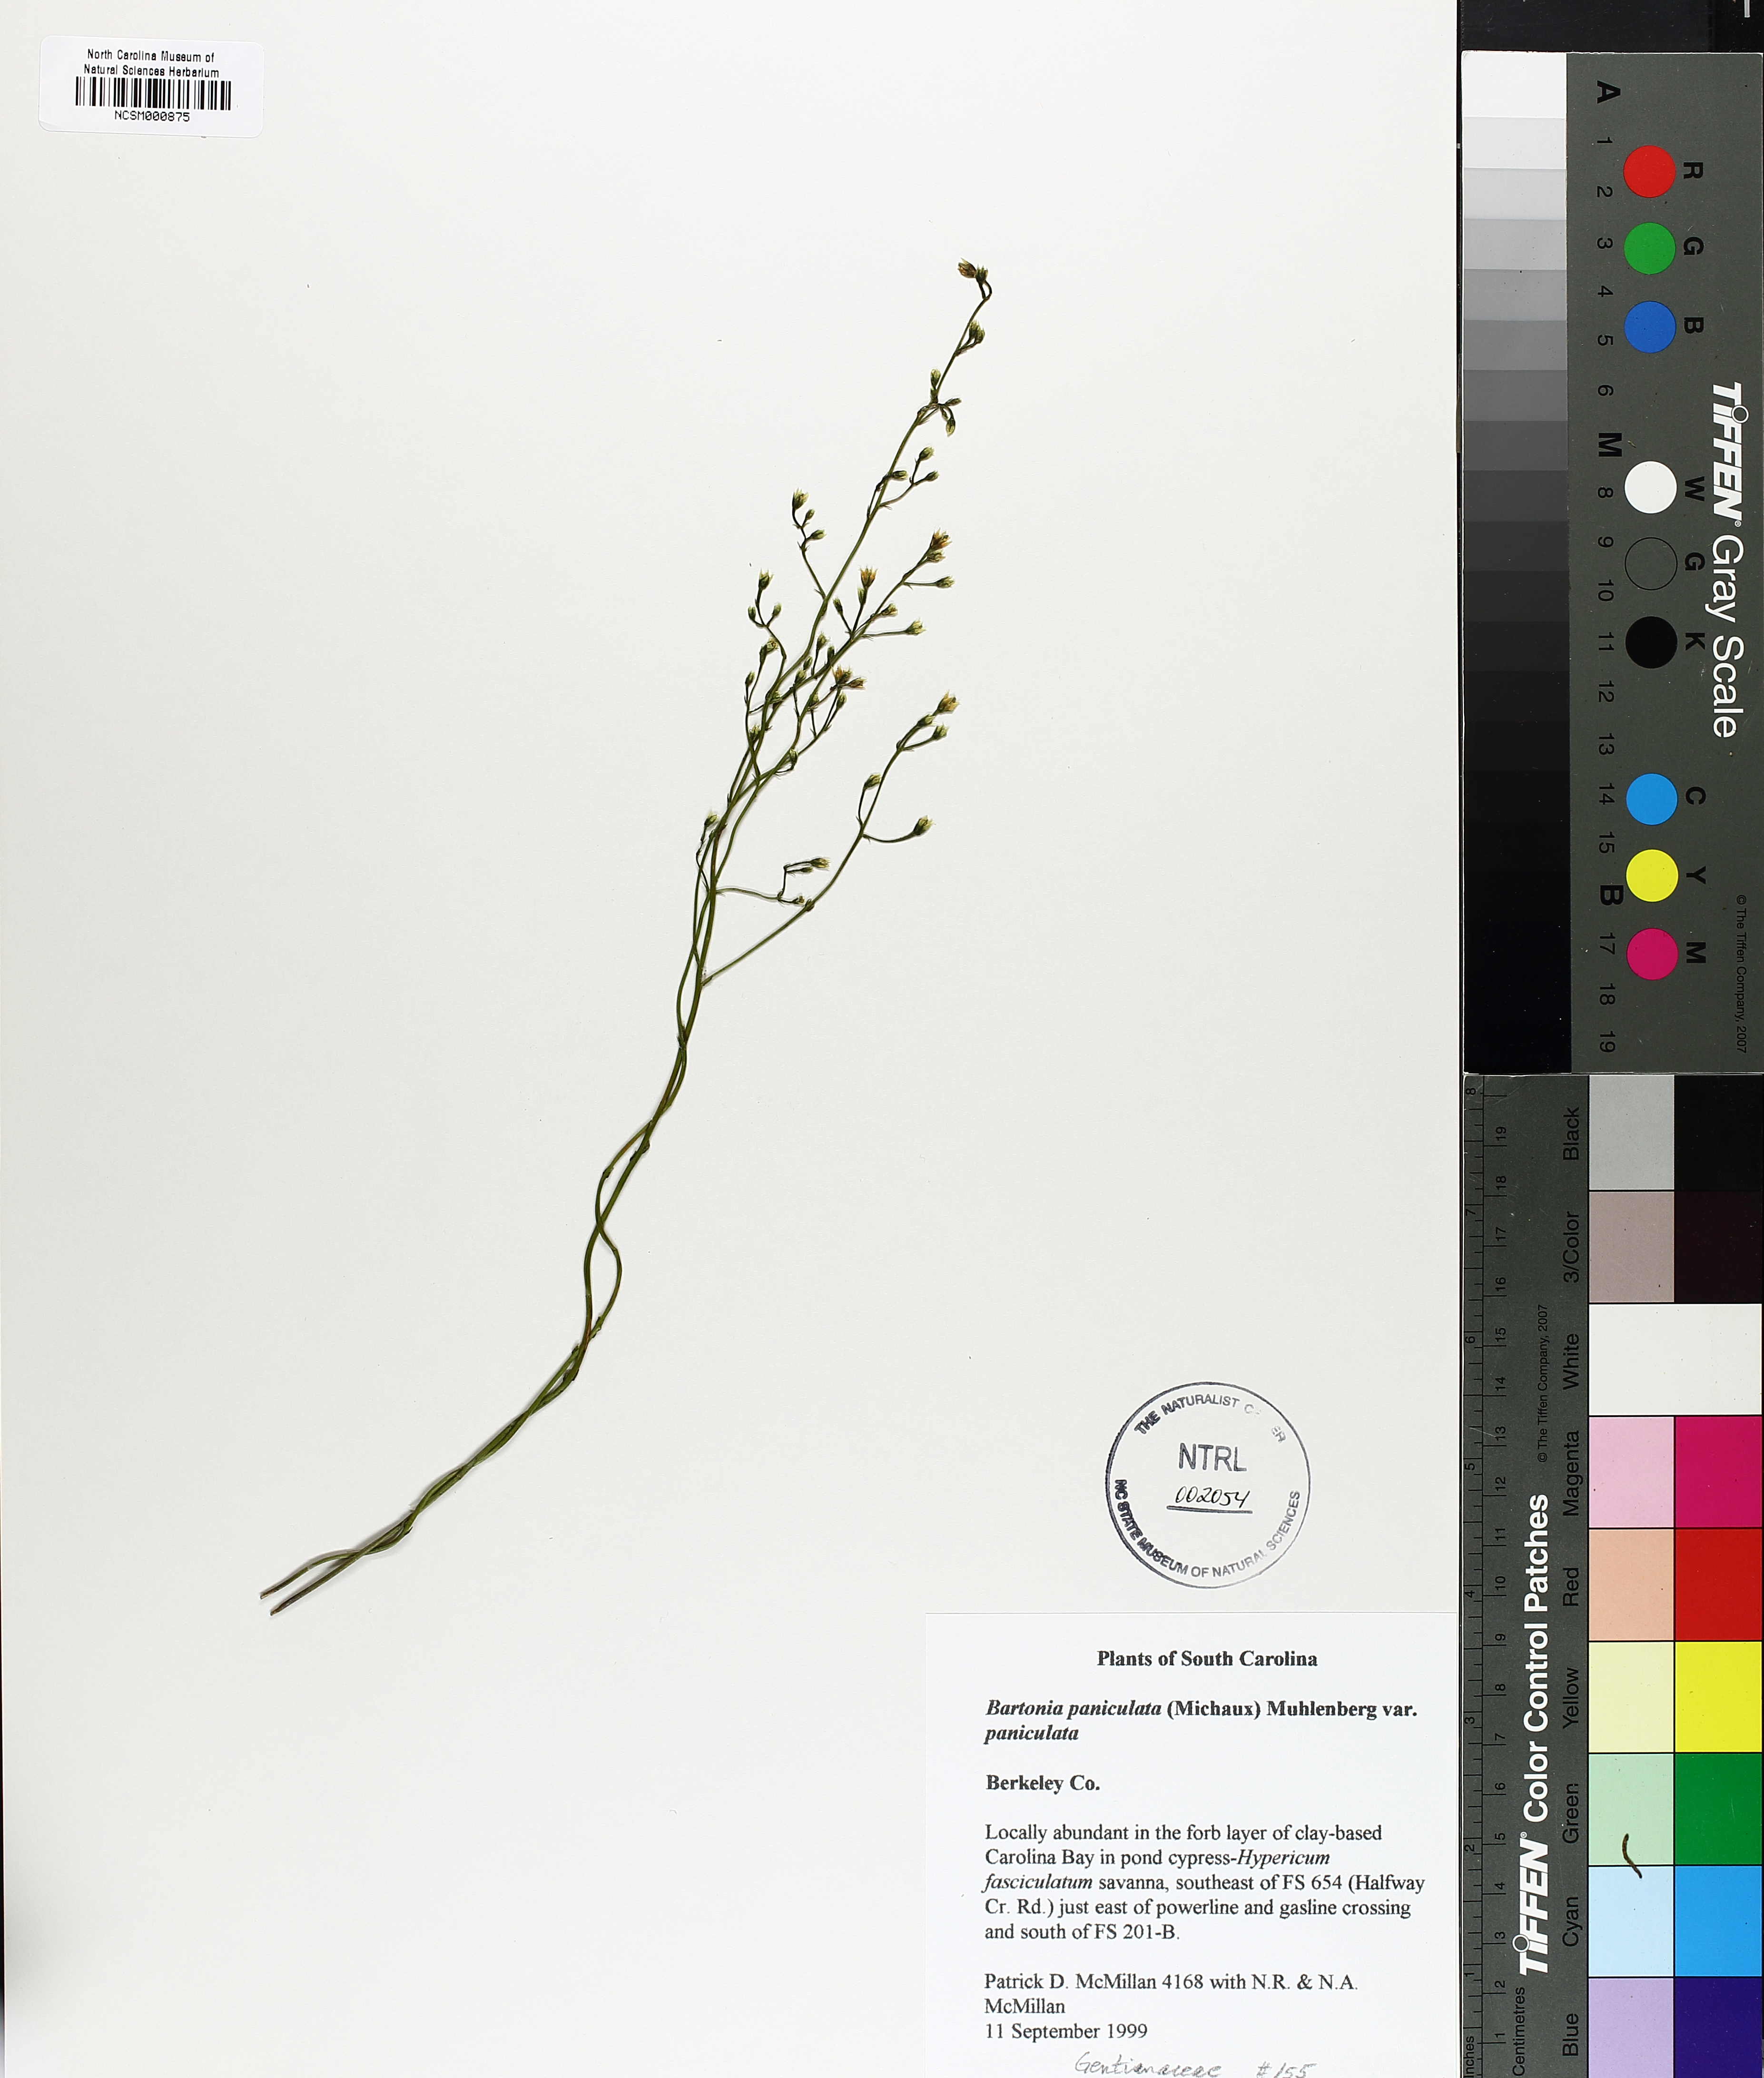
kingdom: Plantae
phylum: Tracheophyta
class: Magnoliopsida
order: Gentianales
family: Gentianaceae
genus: Bartonia
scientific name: Bartonia paniculata
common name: Branched bartonia
